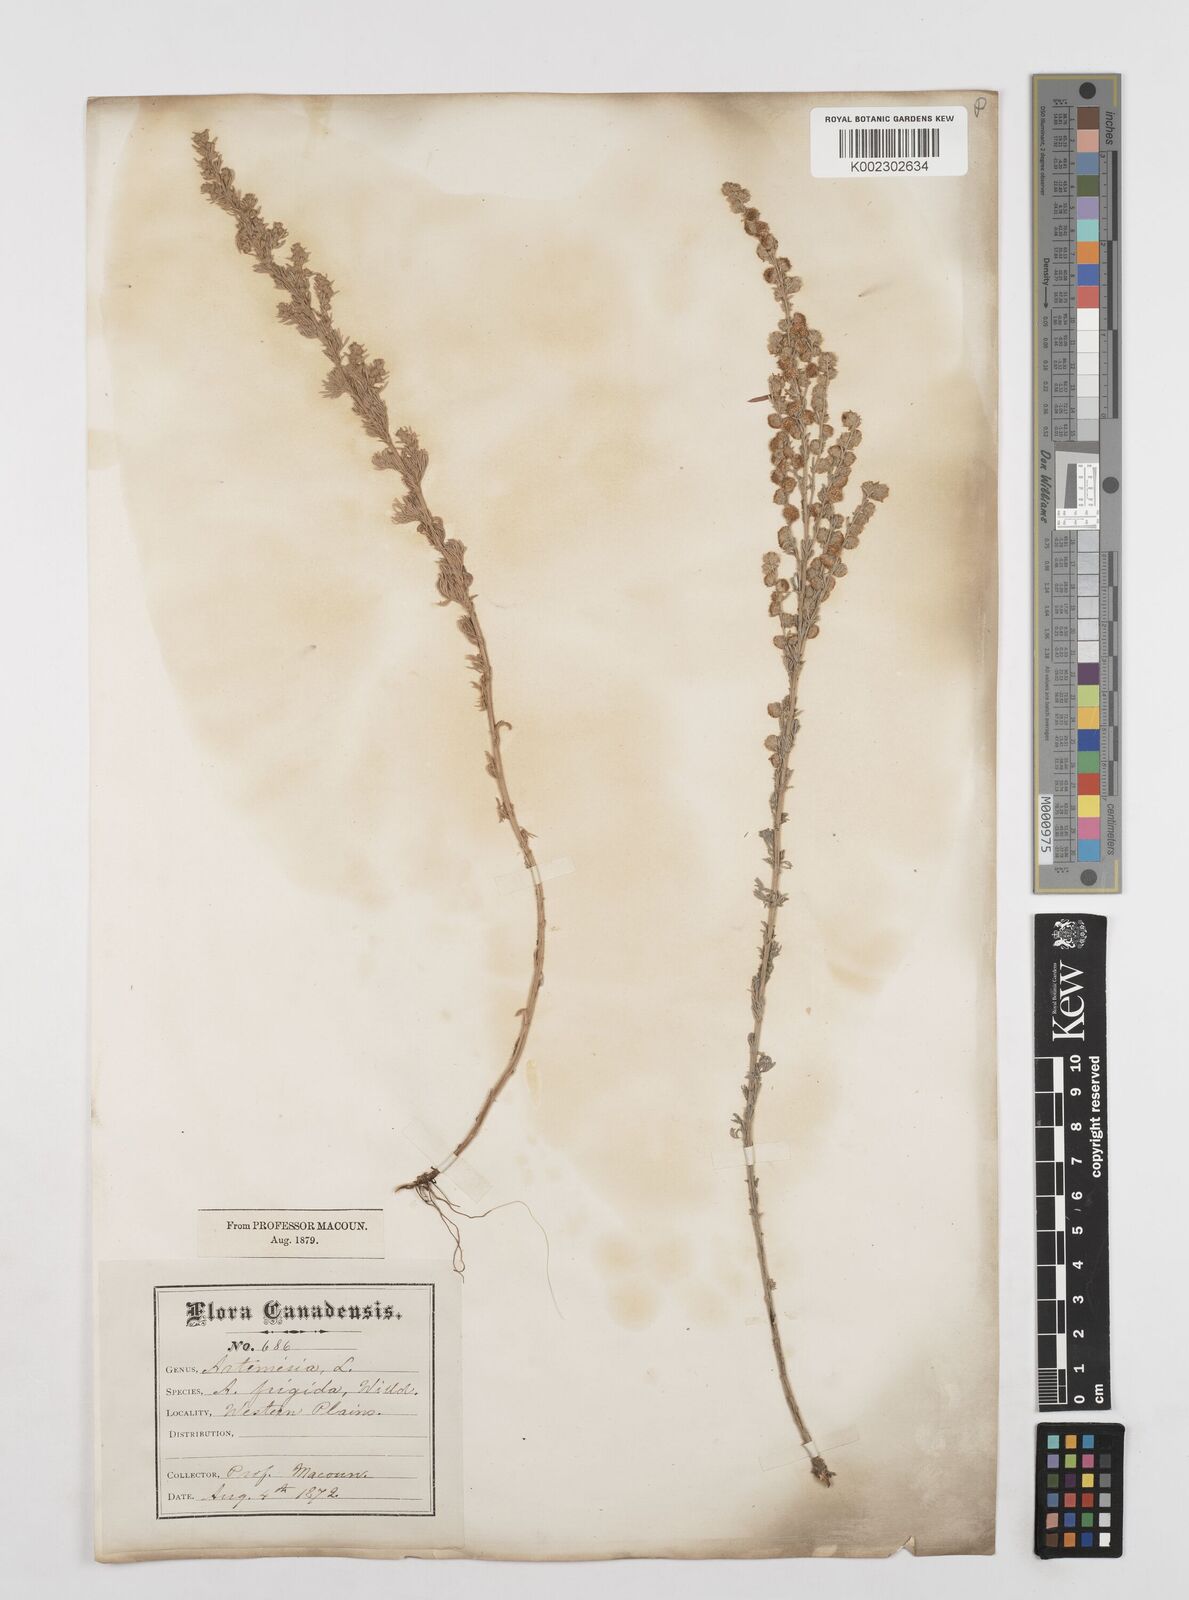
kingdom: Plantae
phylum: Tracheophyta
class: Magnoliopsida
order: Asterales
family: Asteraceae
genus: Artemisia
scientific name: Artemisia frigida
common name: Prairie sagewort
